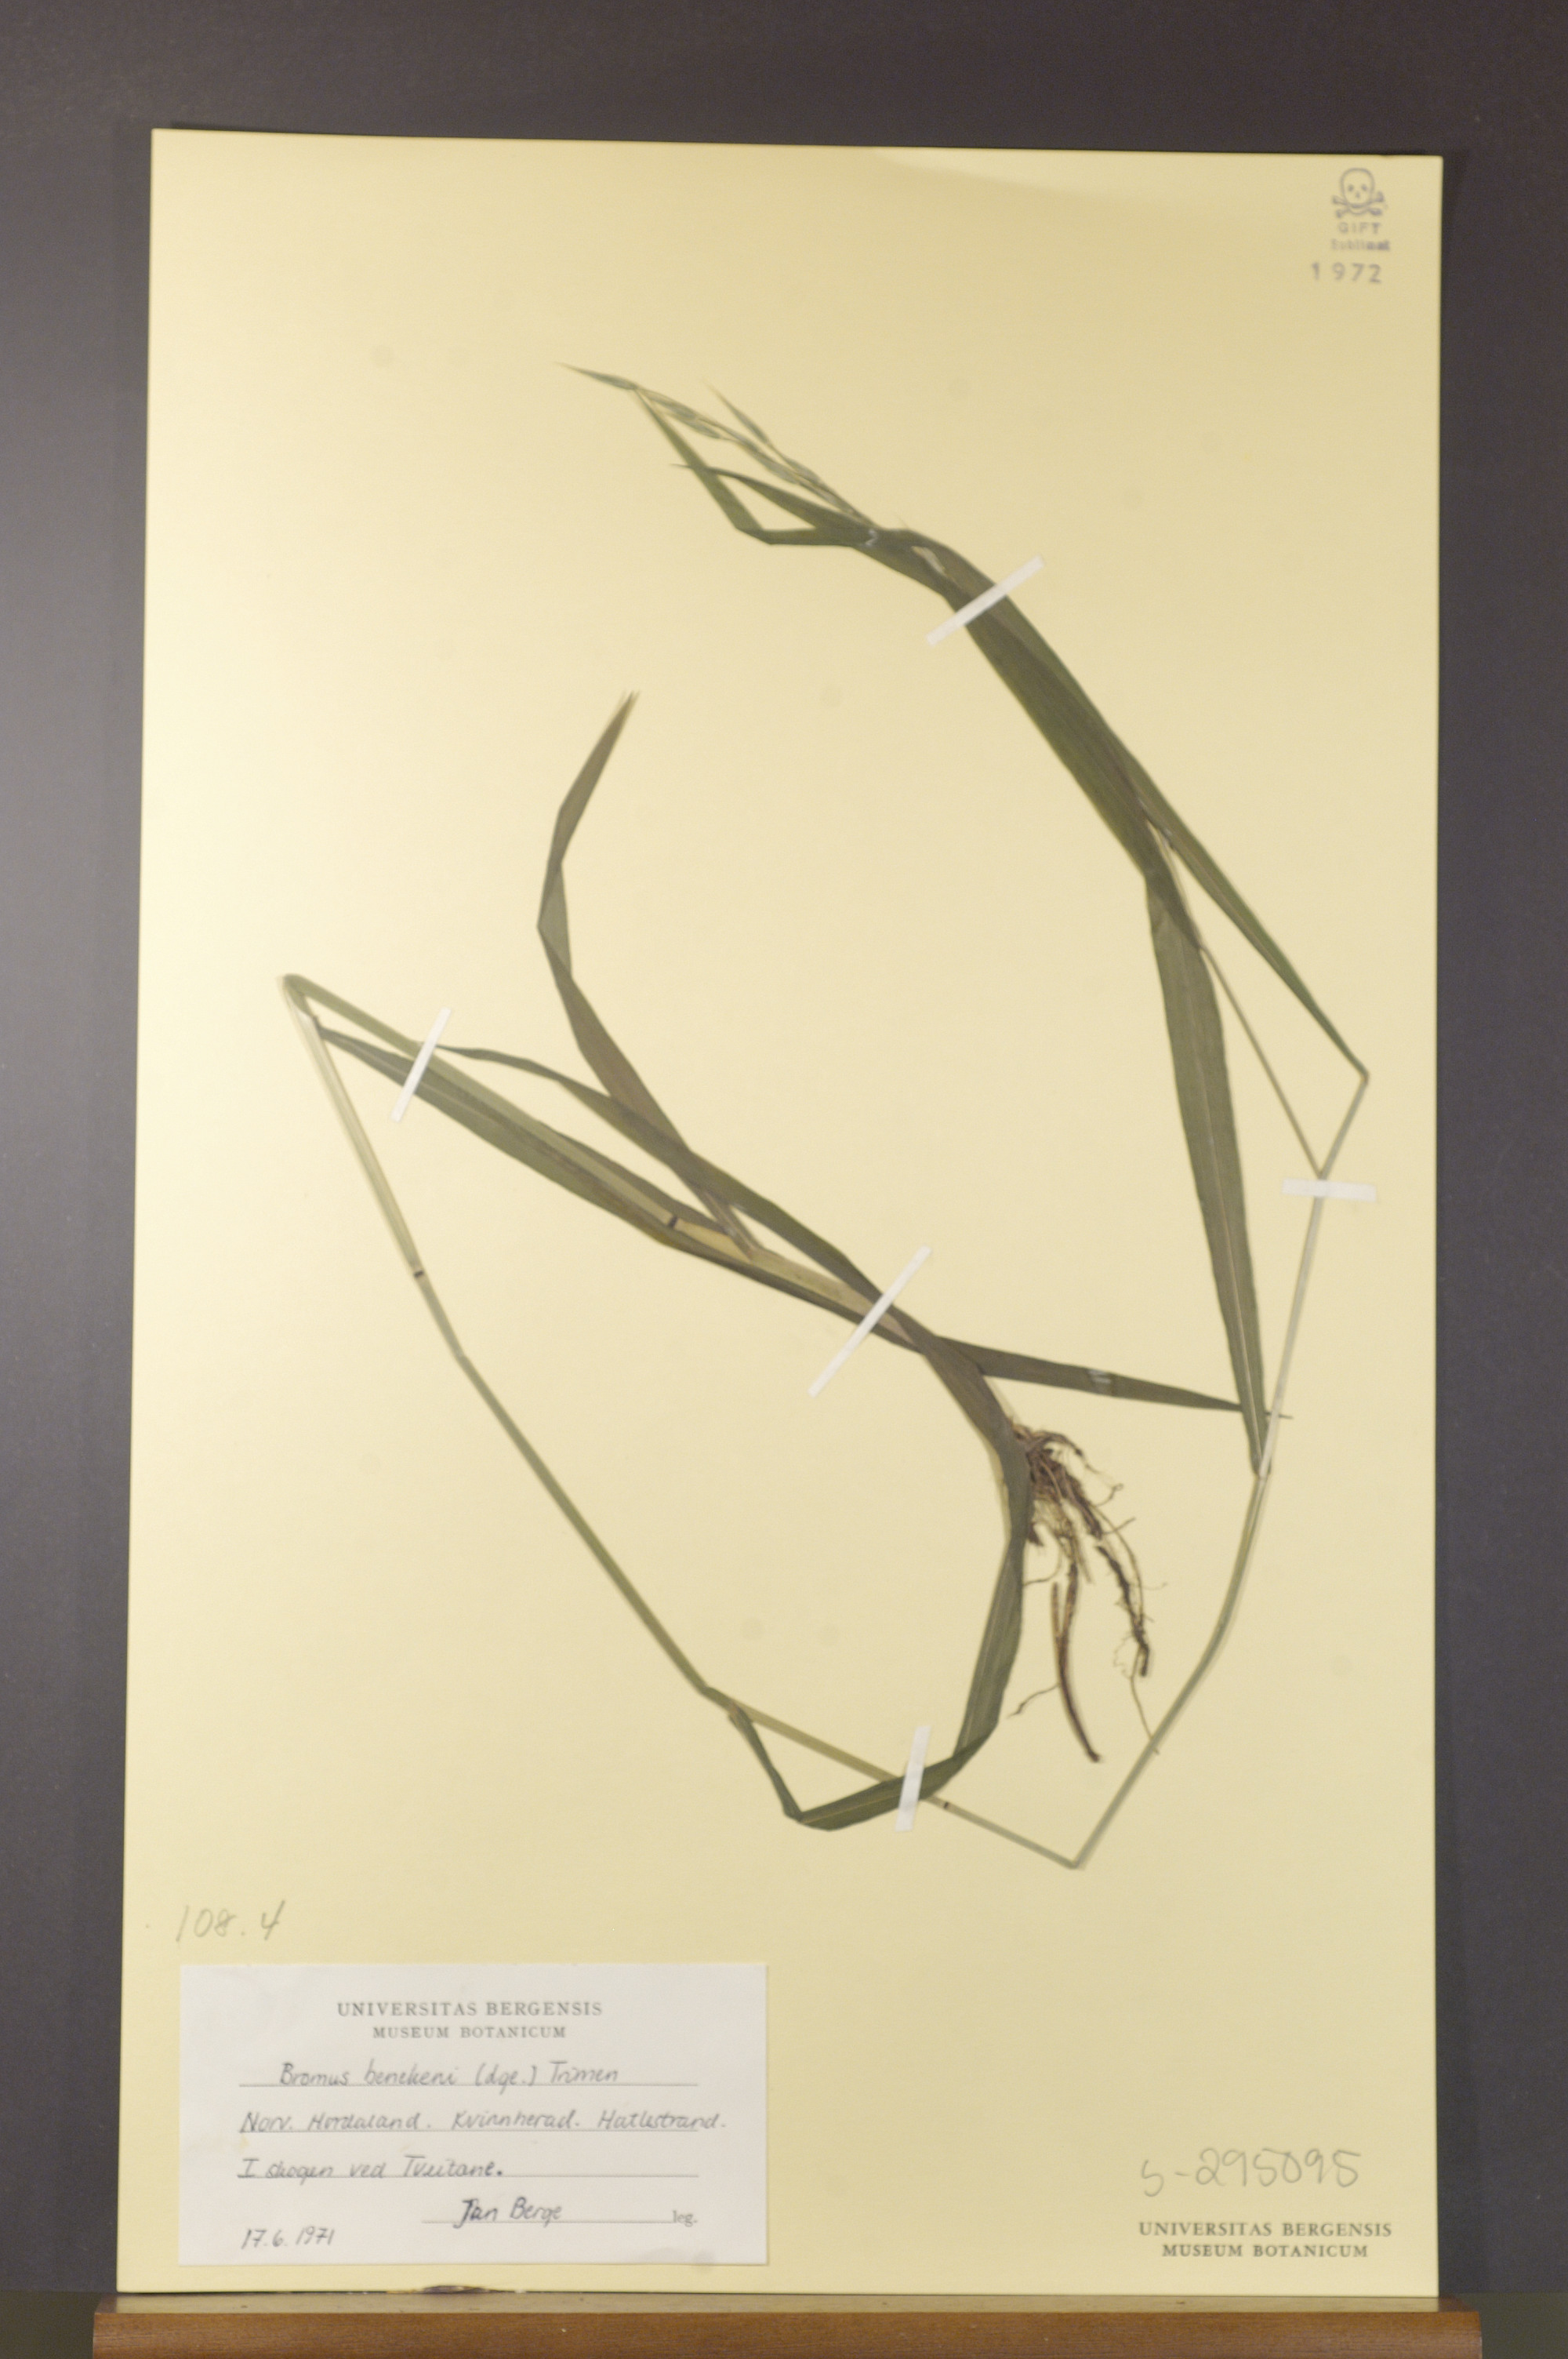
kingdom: Plantae
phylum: Tracheophyta
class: Liliopsida
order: Poales
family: Poaceae
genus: Bromus
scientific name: Bromus benekenii
